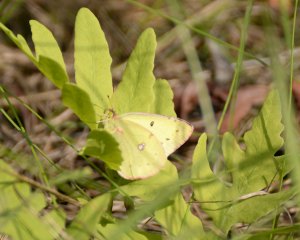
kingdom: Animalia
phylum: Arthropoda
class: Insecta
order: Lepidoptera
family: Pieridae
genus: Colias
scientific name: Colias philodice
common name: Clouded Sulphur
